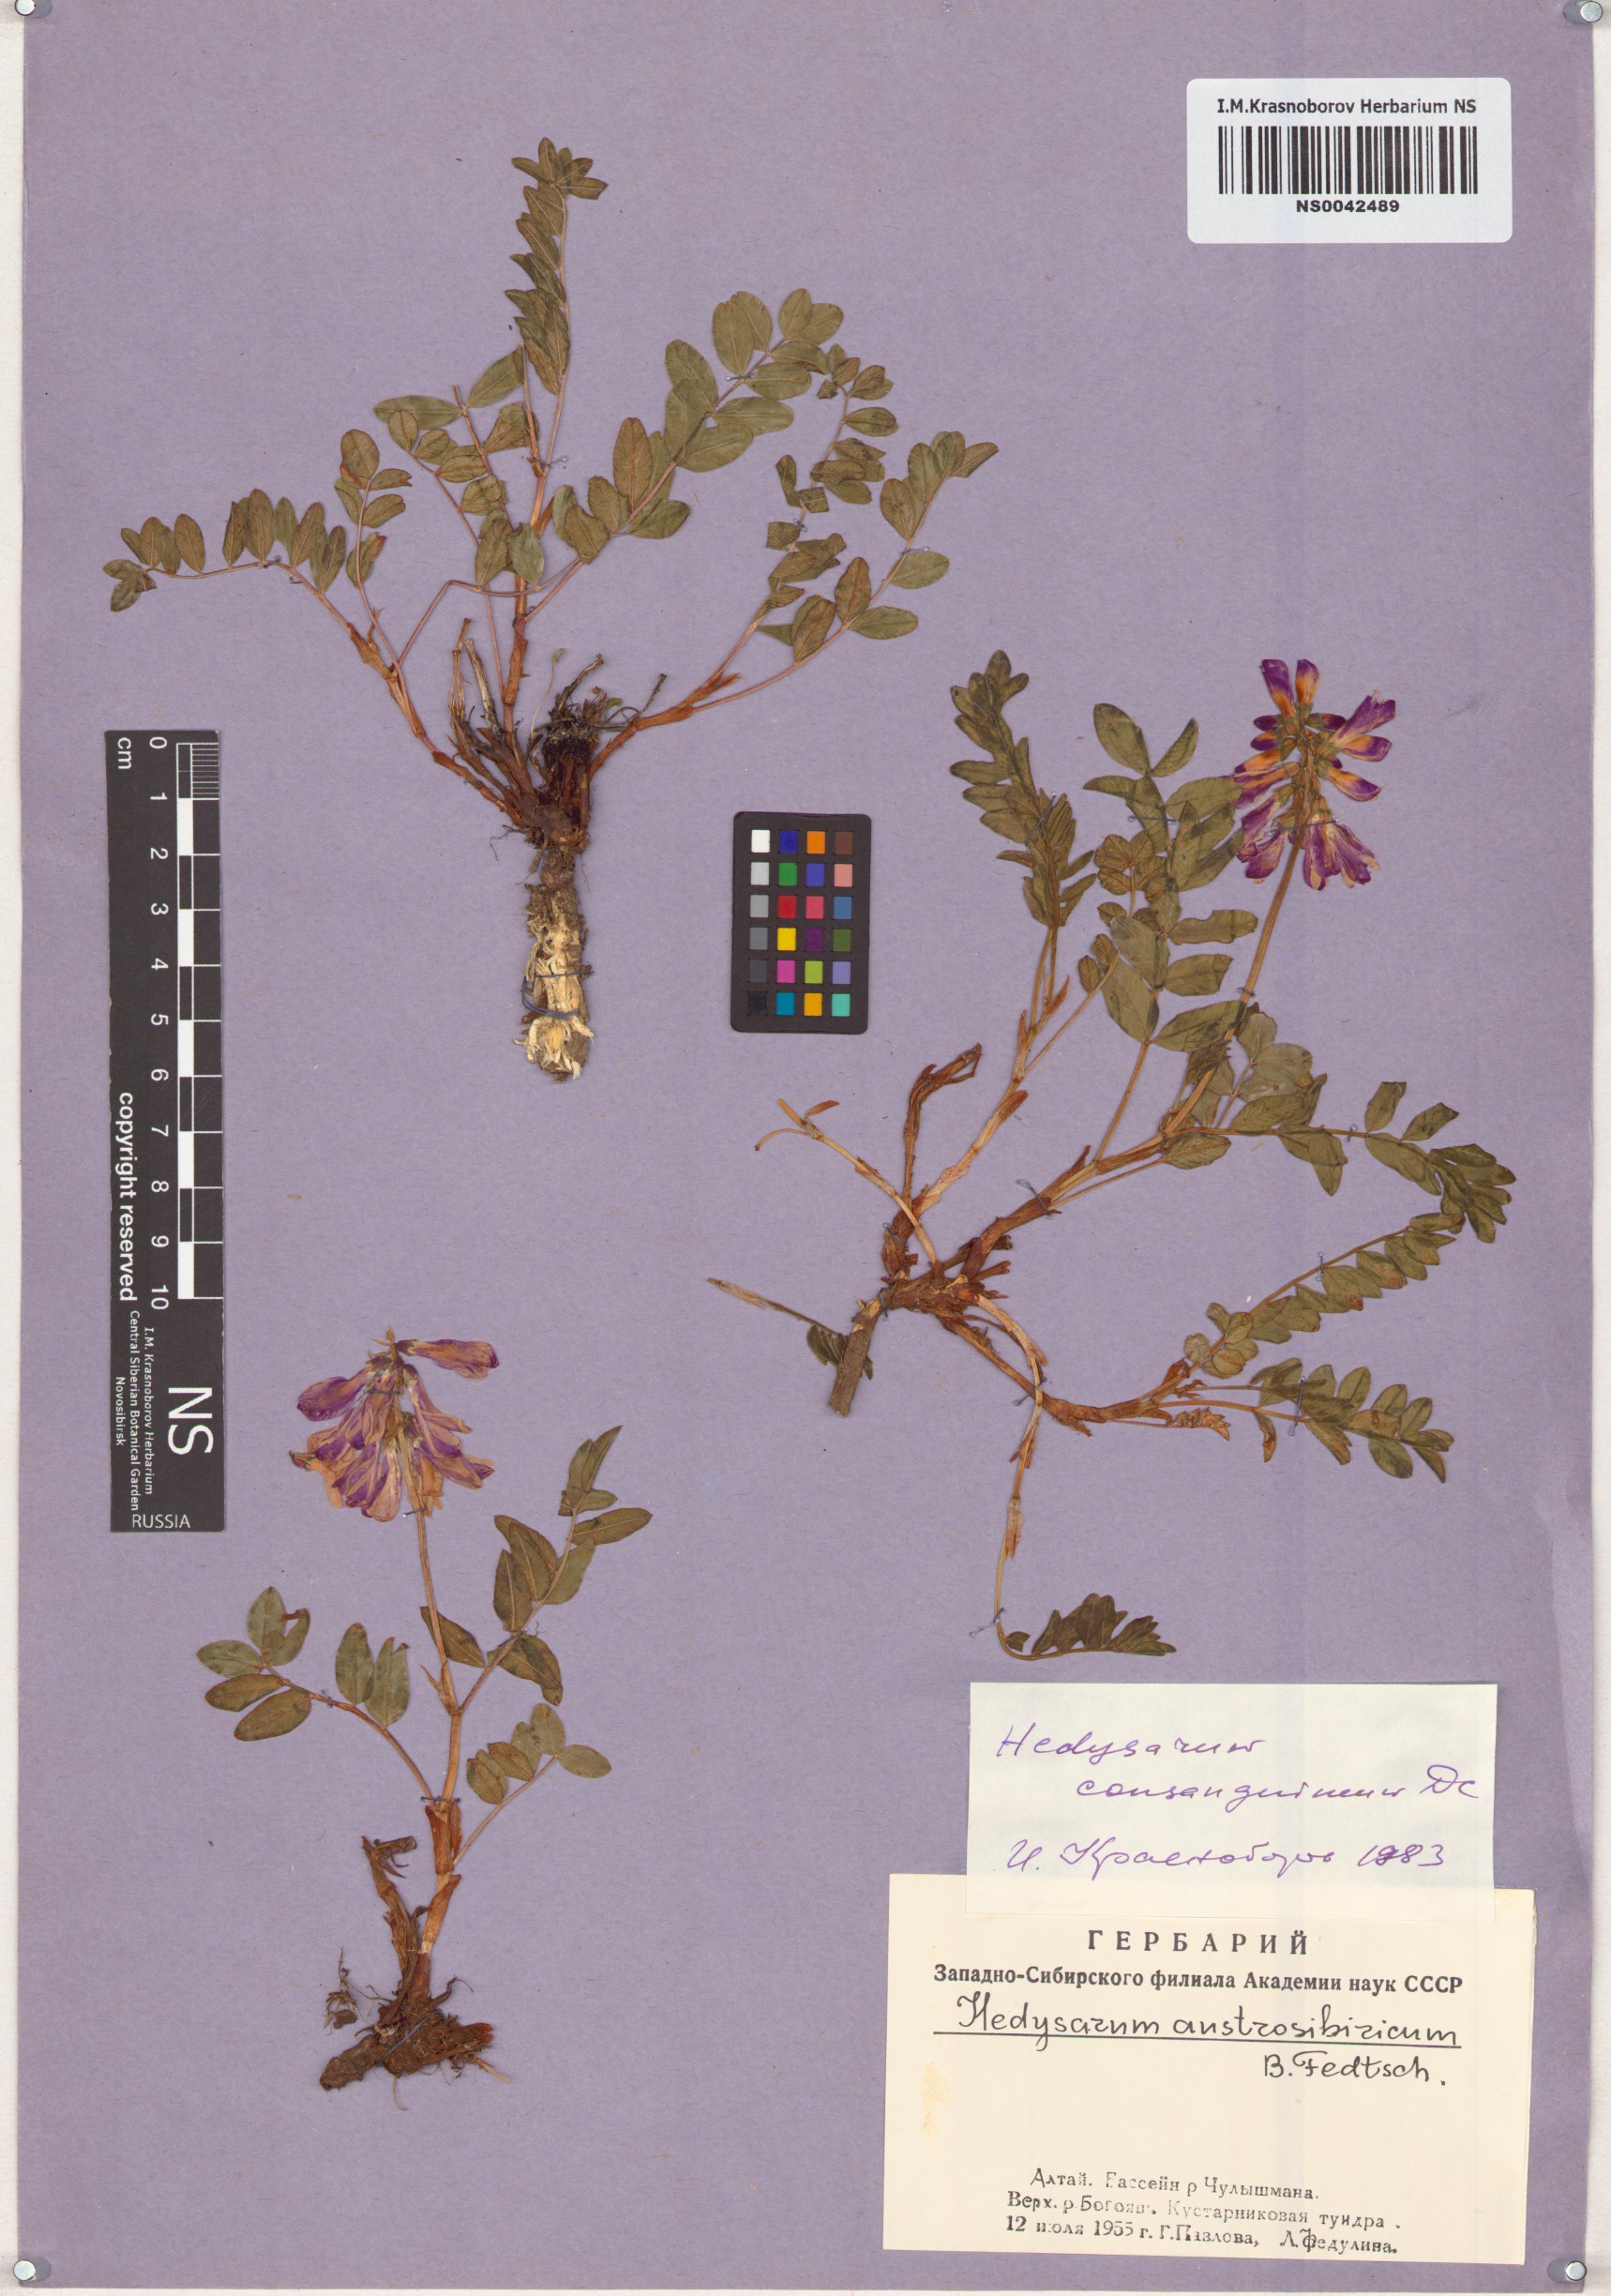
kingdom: Plantae
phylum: Tracheophyta
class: Magnoliopsida
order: Fabales
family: Fabaceae
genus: Hedysarum
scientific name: Hedysarum consanguineum
